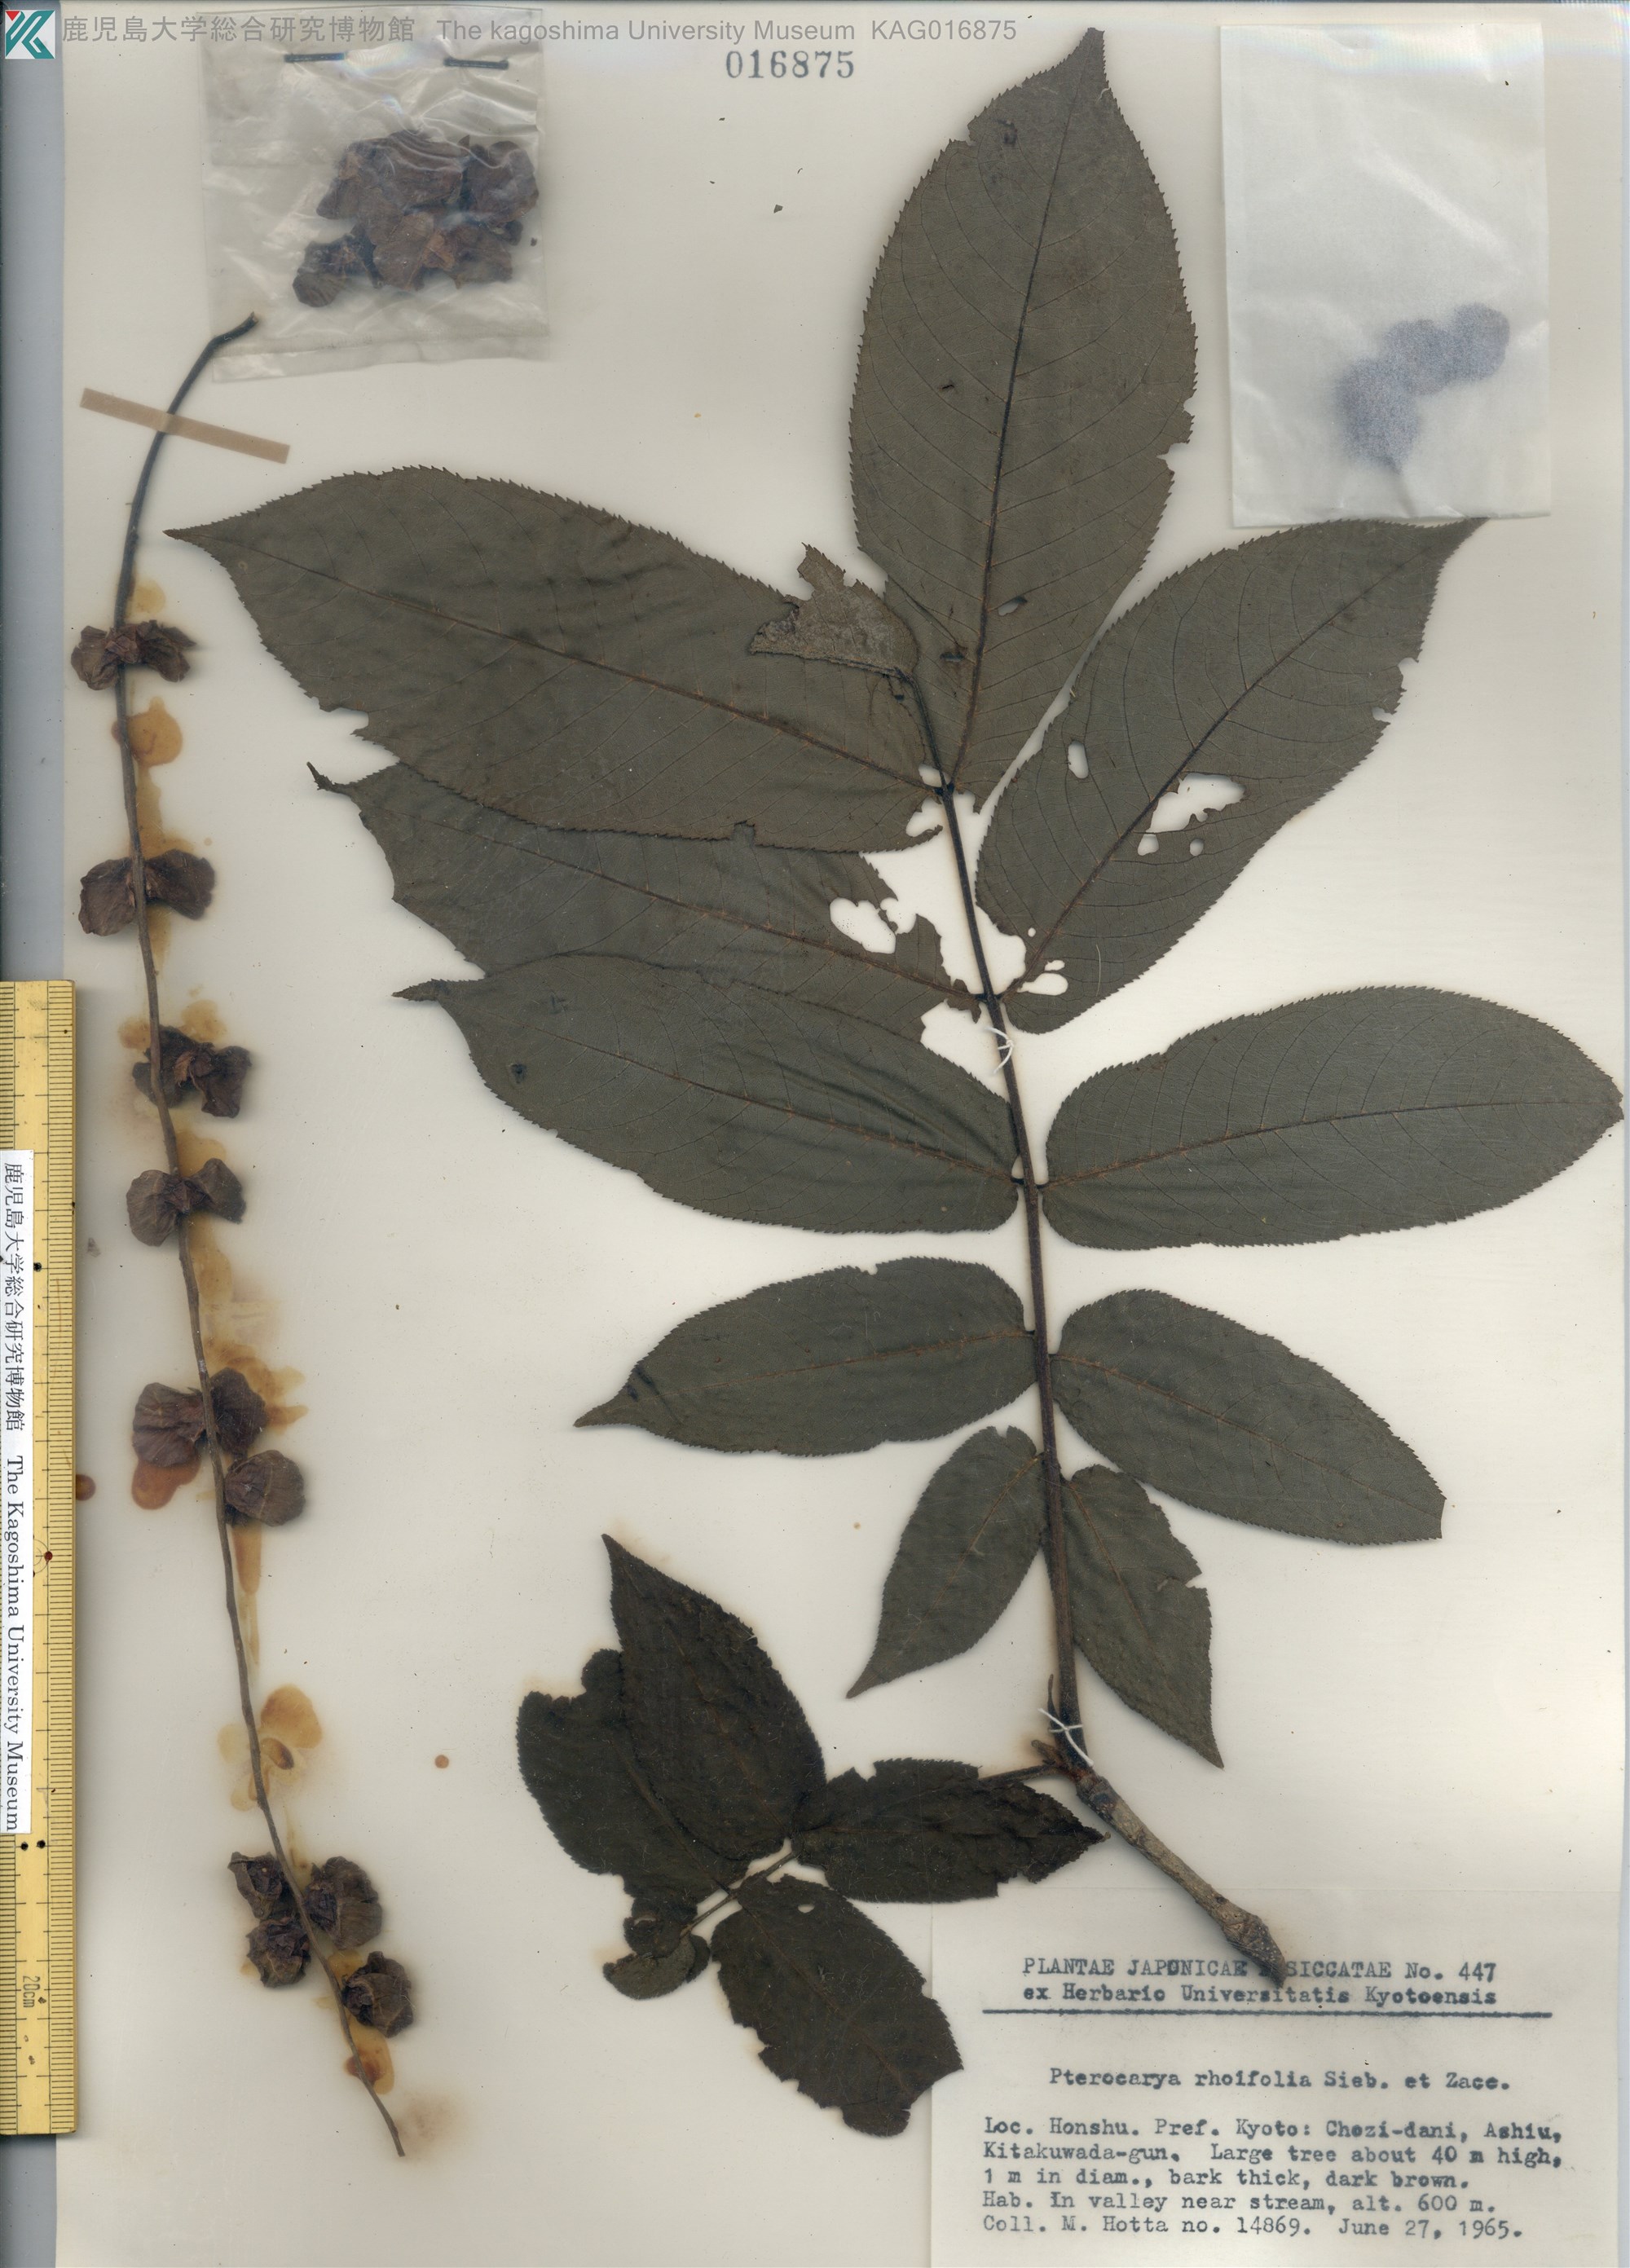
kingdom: Plantae
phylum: Tracheophyta
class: Magnoliopsida
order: Fagales
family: Juglandaceae
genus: Pterocarya
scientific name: Pterocarya rhoifolia
